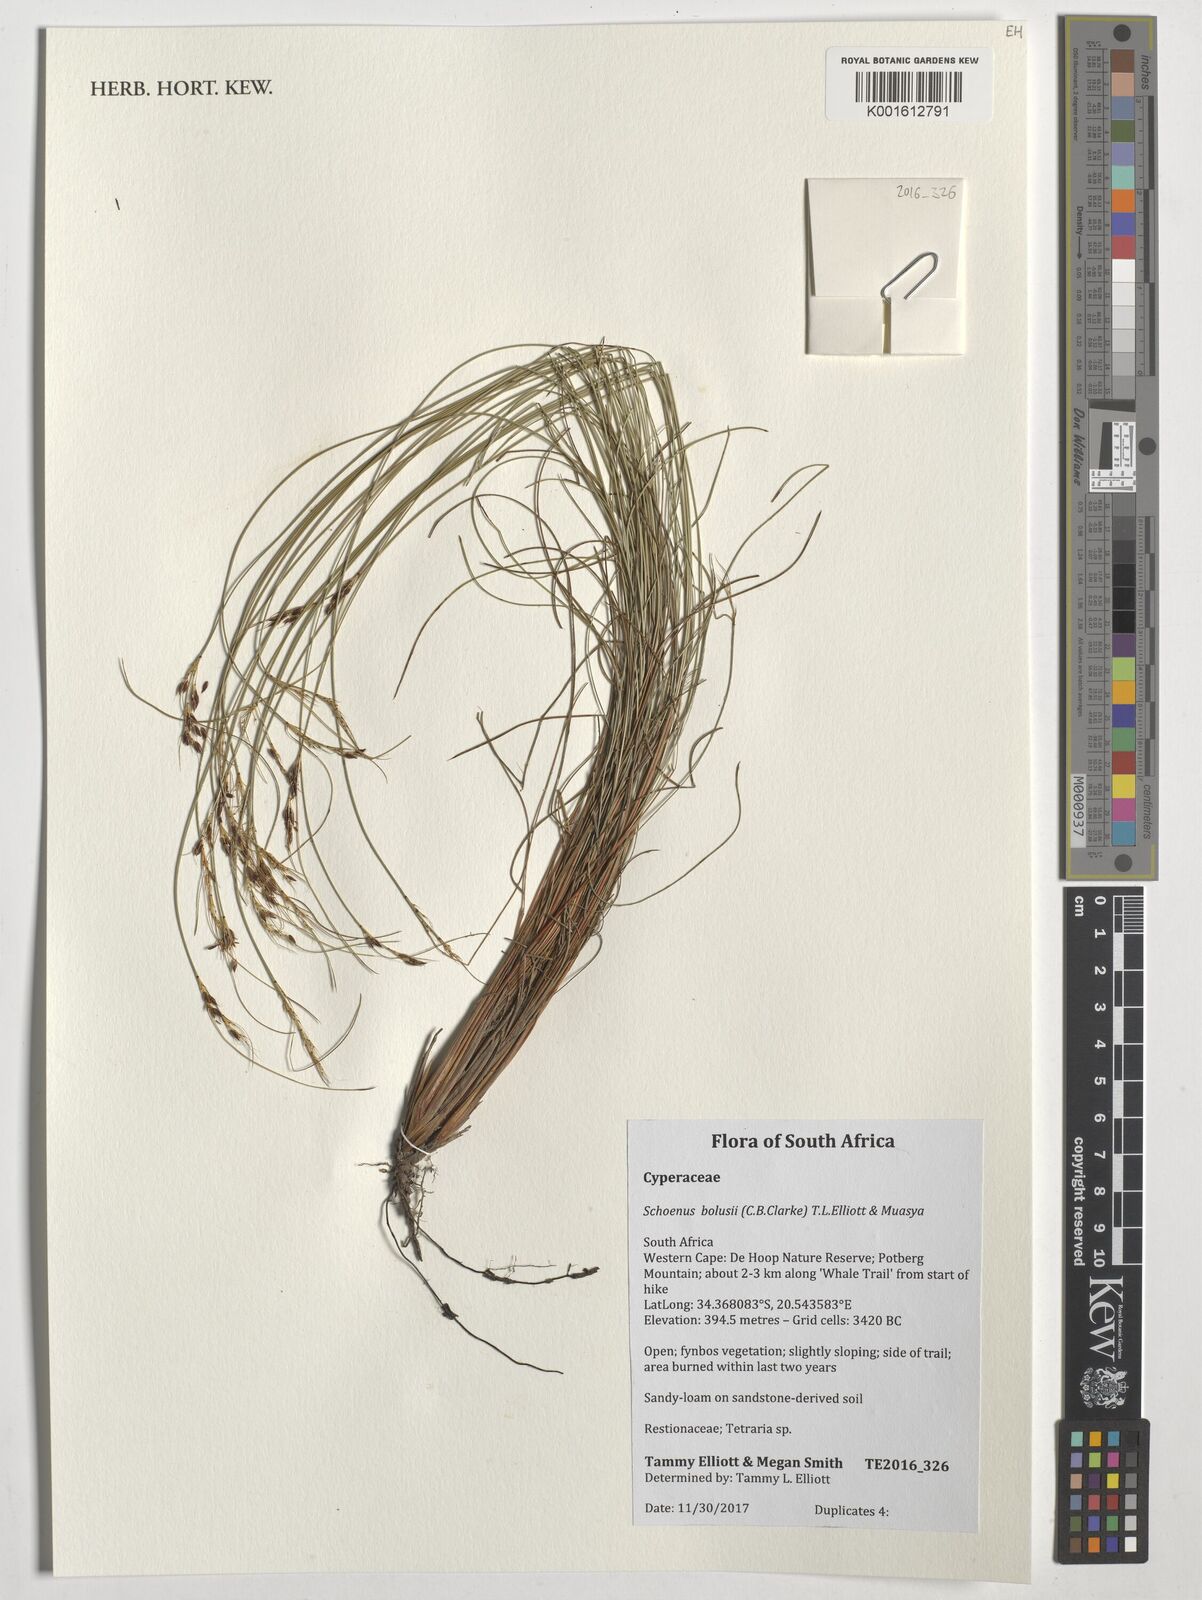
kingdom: Plantae
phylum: Tracheophyta
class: Liliopsida
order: Poales
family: Cyperaceae
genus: Schoenus
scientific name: Schoenus bolusii
